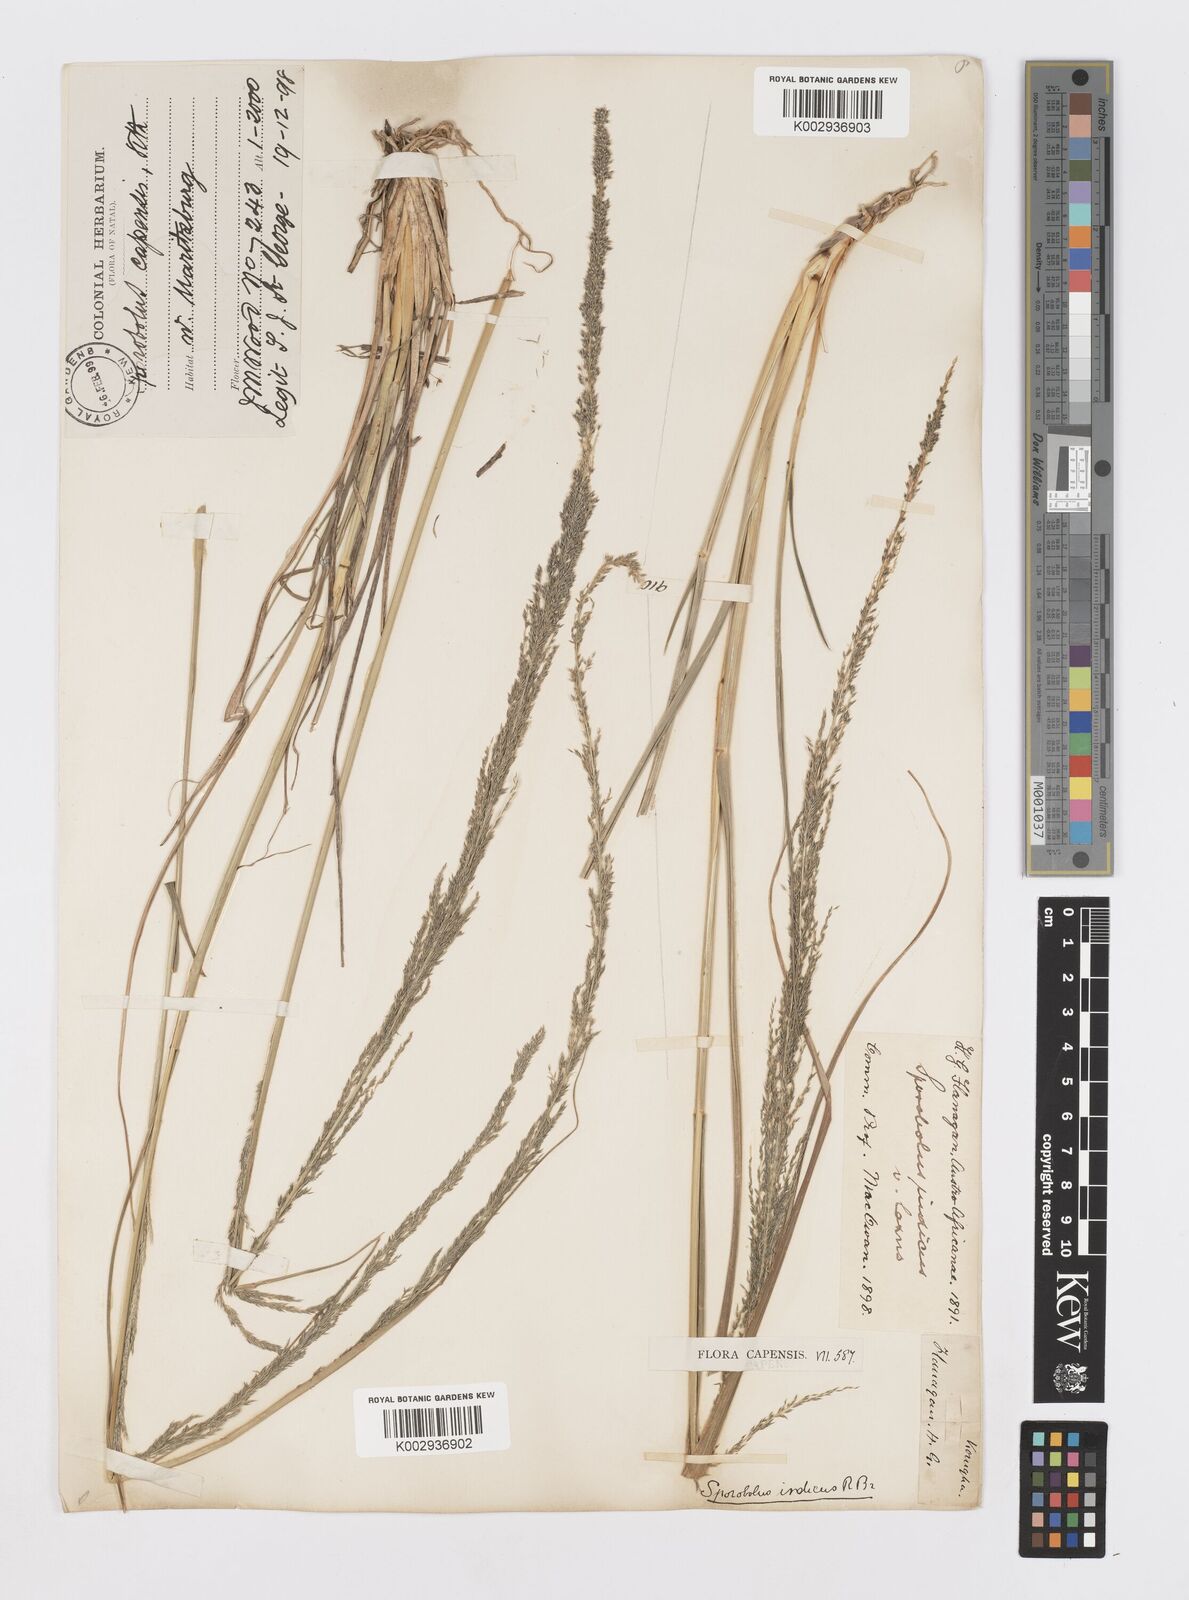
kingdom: Plantae
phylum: Tracheophyta
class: Liliopsida
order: Poales
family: Poaceae
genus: Sporobolus
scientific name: Sporobolus natalensis
